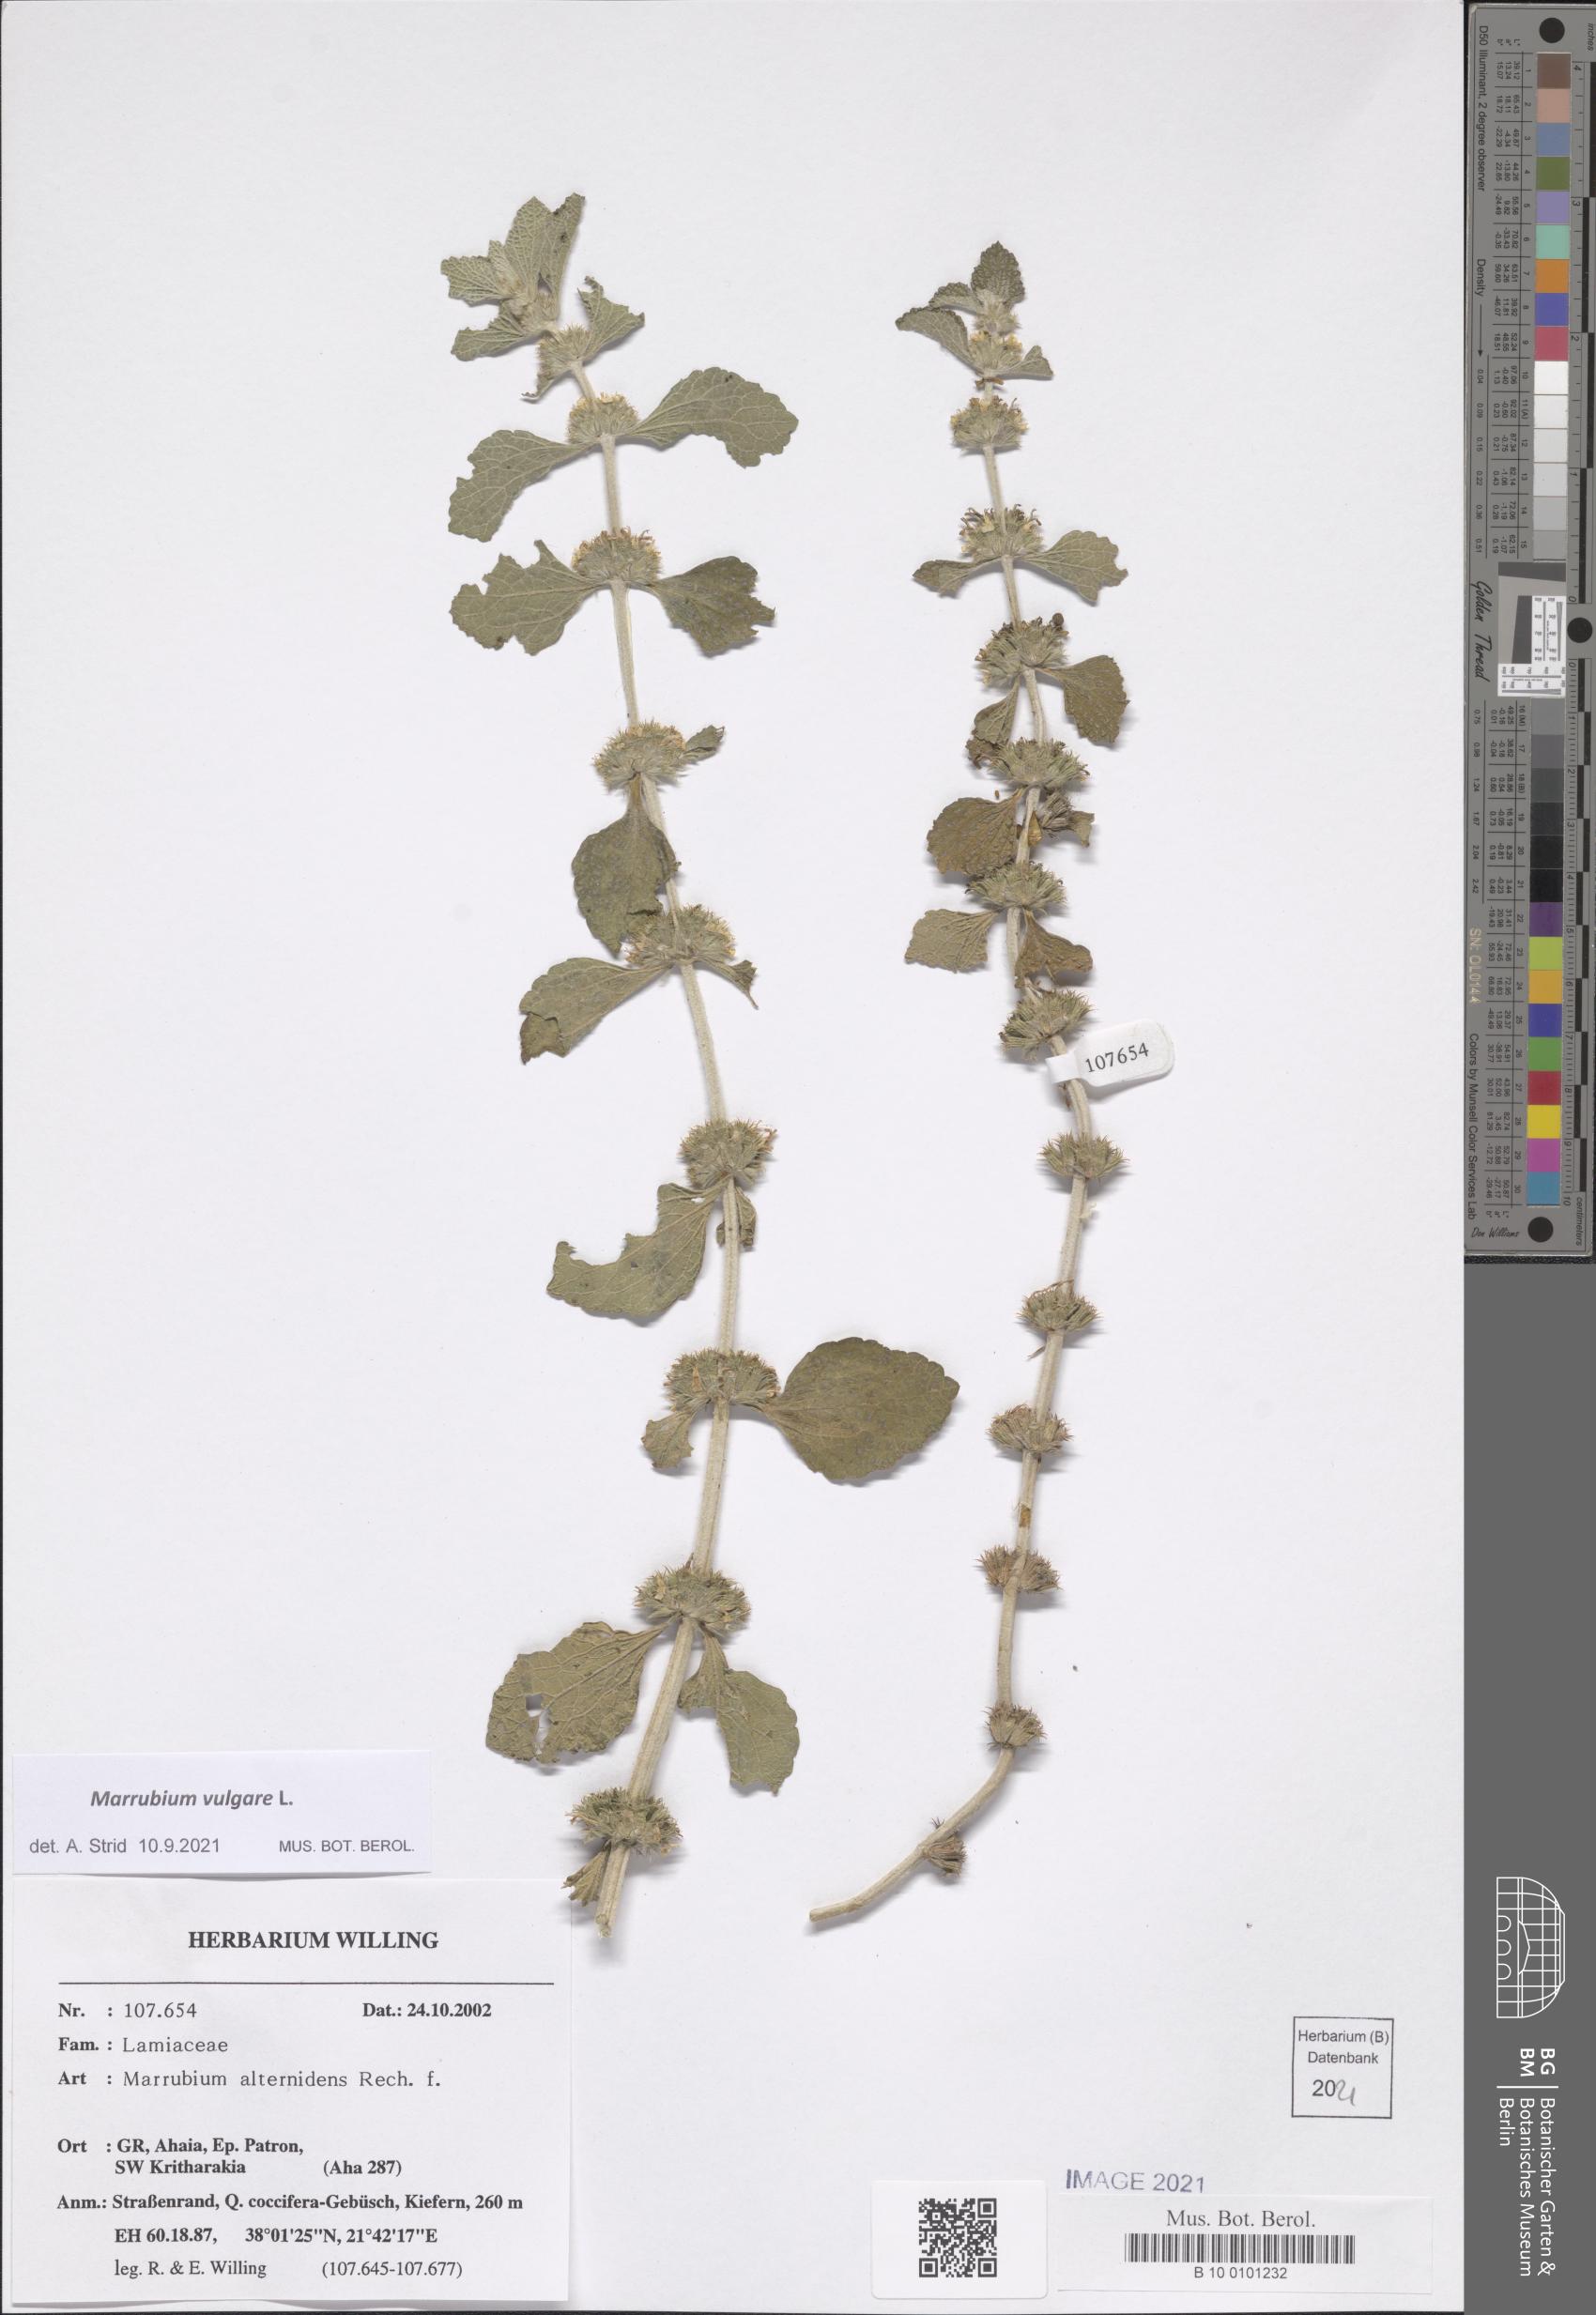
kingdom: Plantae
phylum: Tracheophyta
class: Magnoliopsida
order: Lamiales
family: Lamiaceae
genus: Marrubium
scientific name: Marrubium vulgare
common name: Horehound
